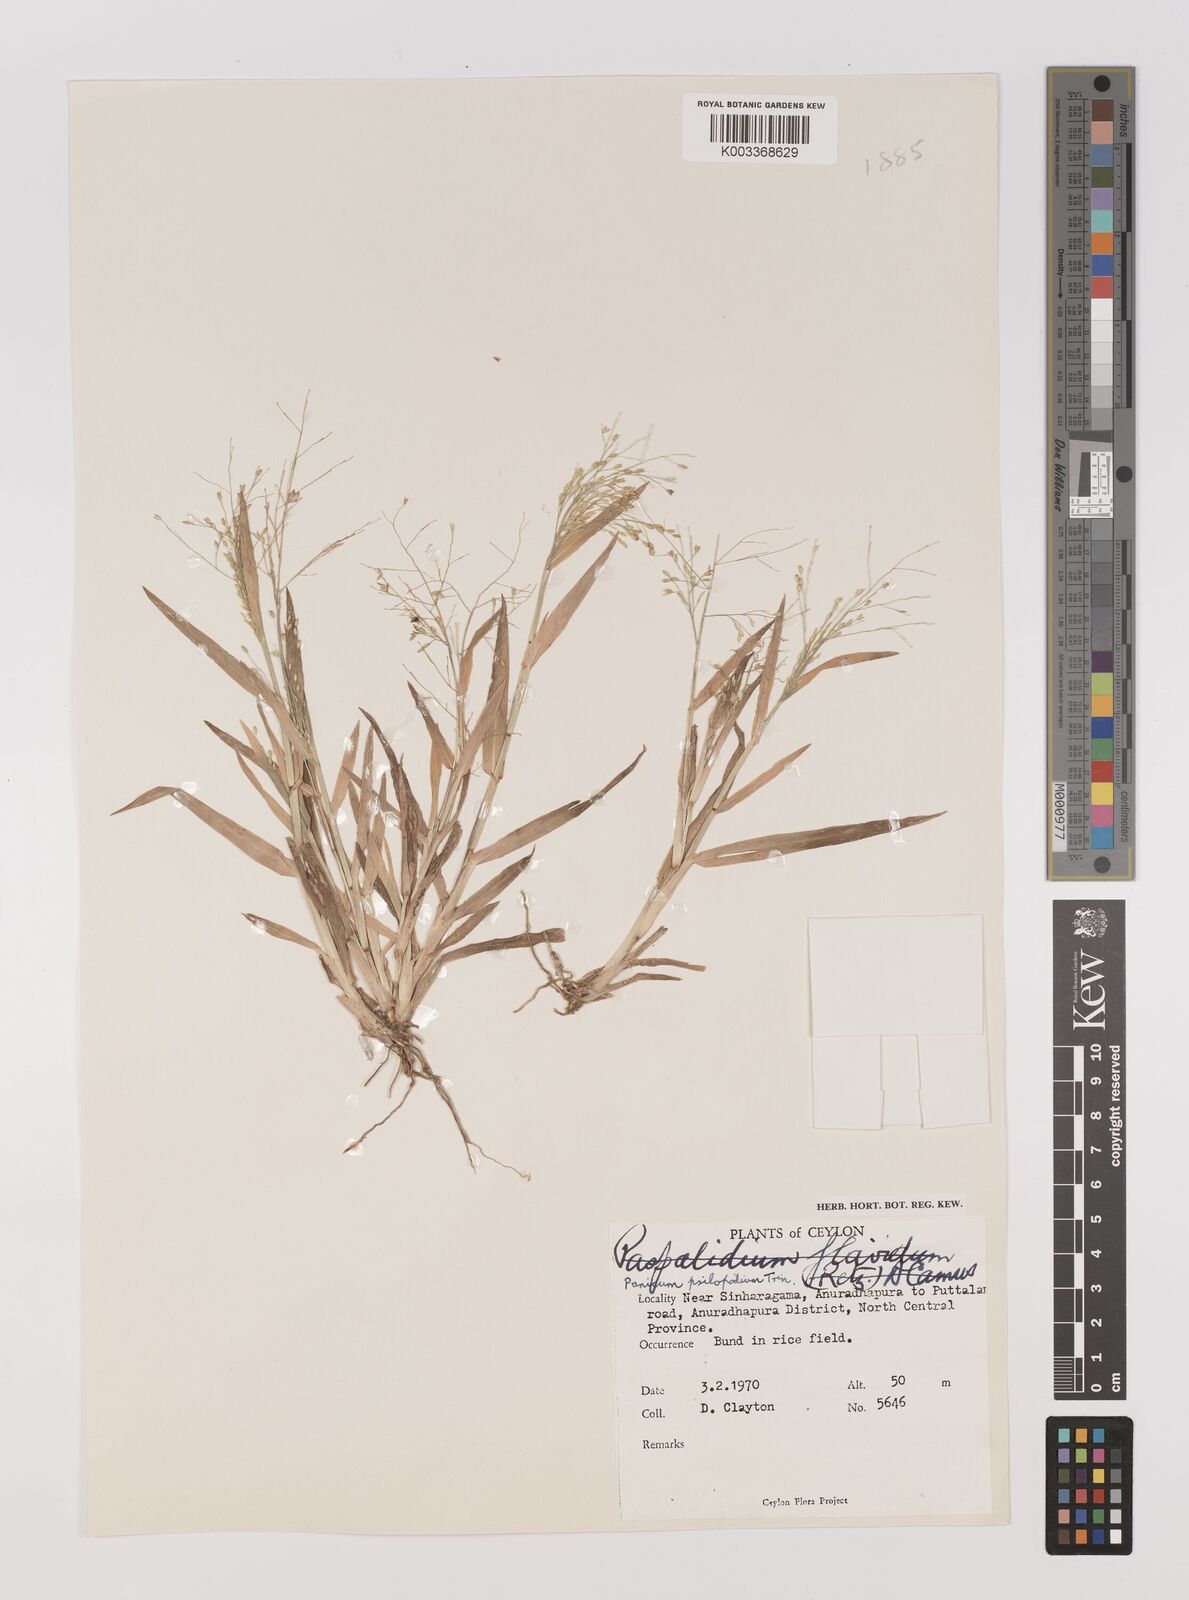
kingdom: Plantae
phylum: Tracheophyta
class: Liliopsida
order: Poales
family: Poaceae
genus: Panicum
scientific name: Panicum sumatrense
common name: Little millet
